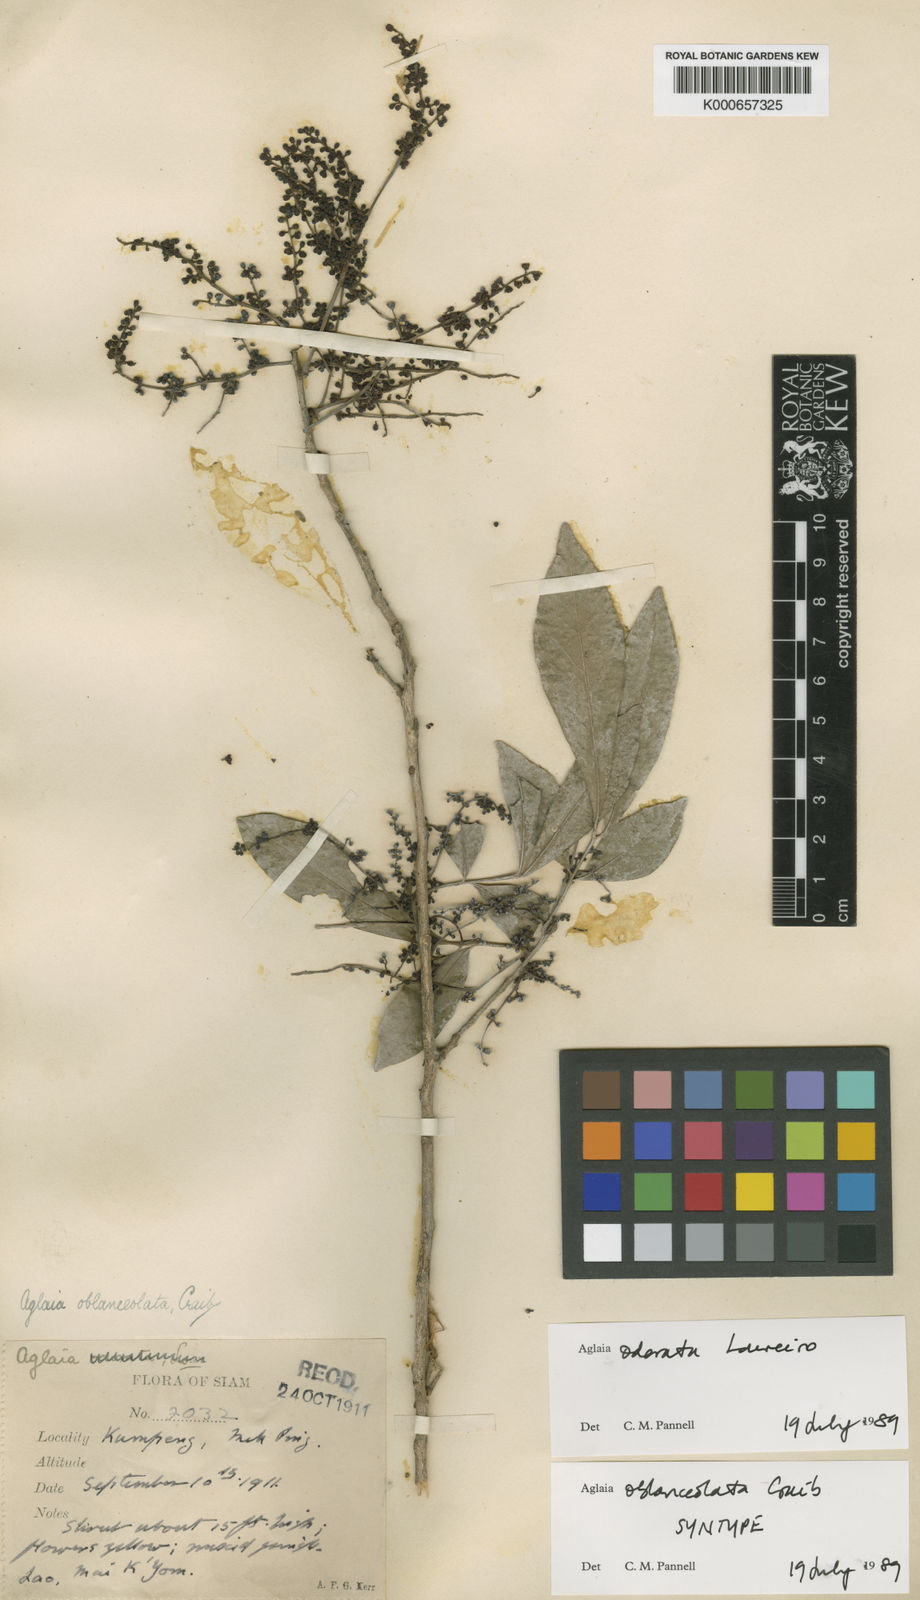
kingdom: Plantae
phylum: Tracheophyta
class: Magnoliopsida
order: Sapindales
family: Meliaceae
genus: Aglaia
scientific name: Aglaia odorata
